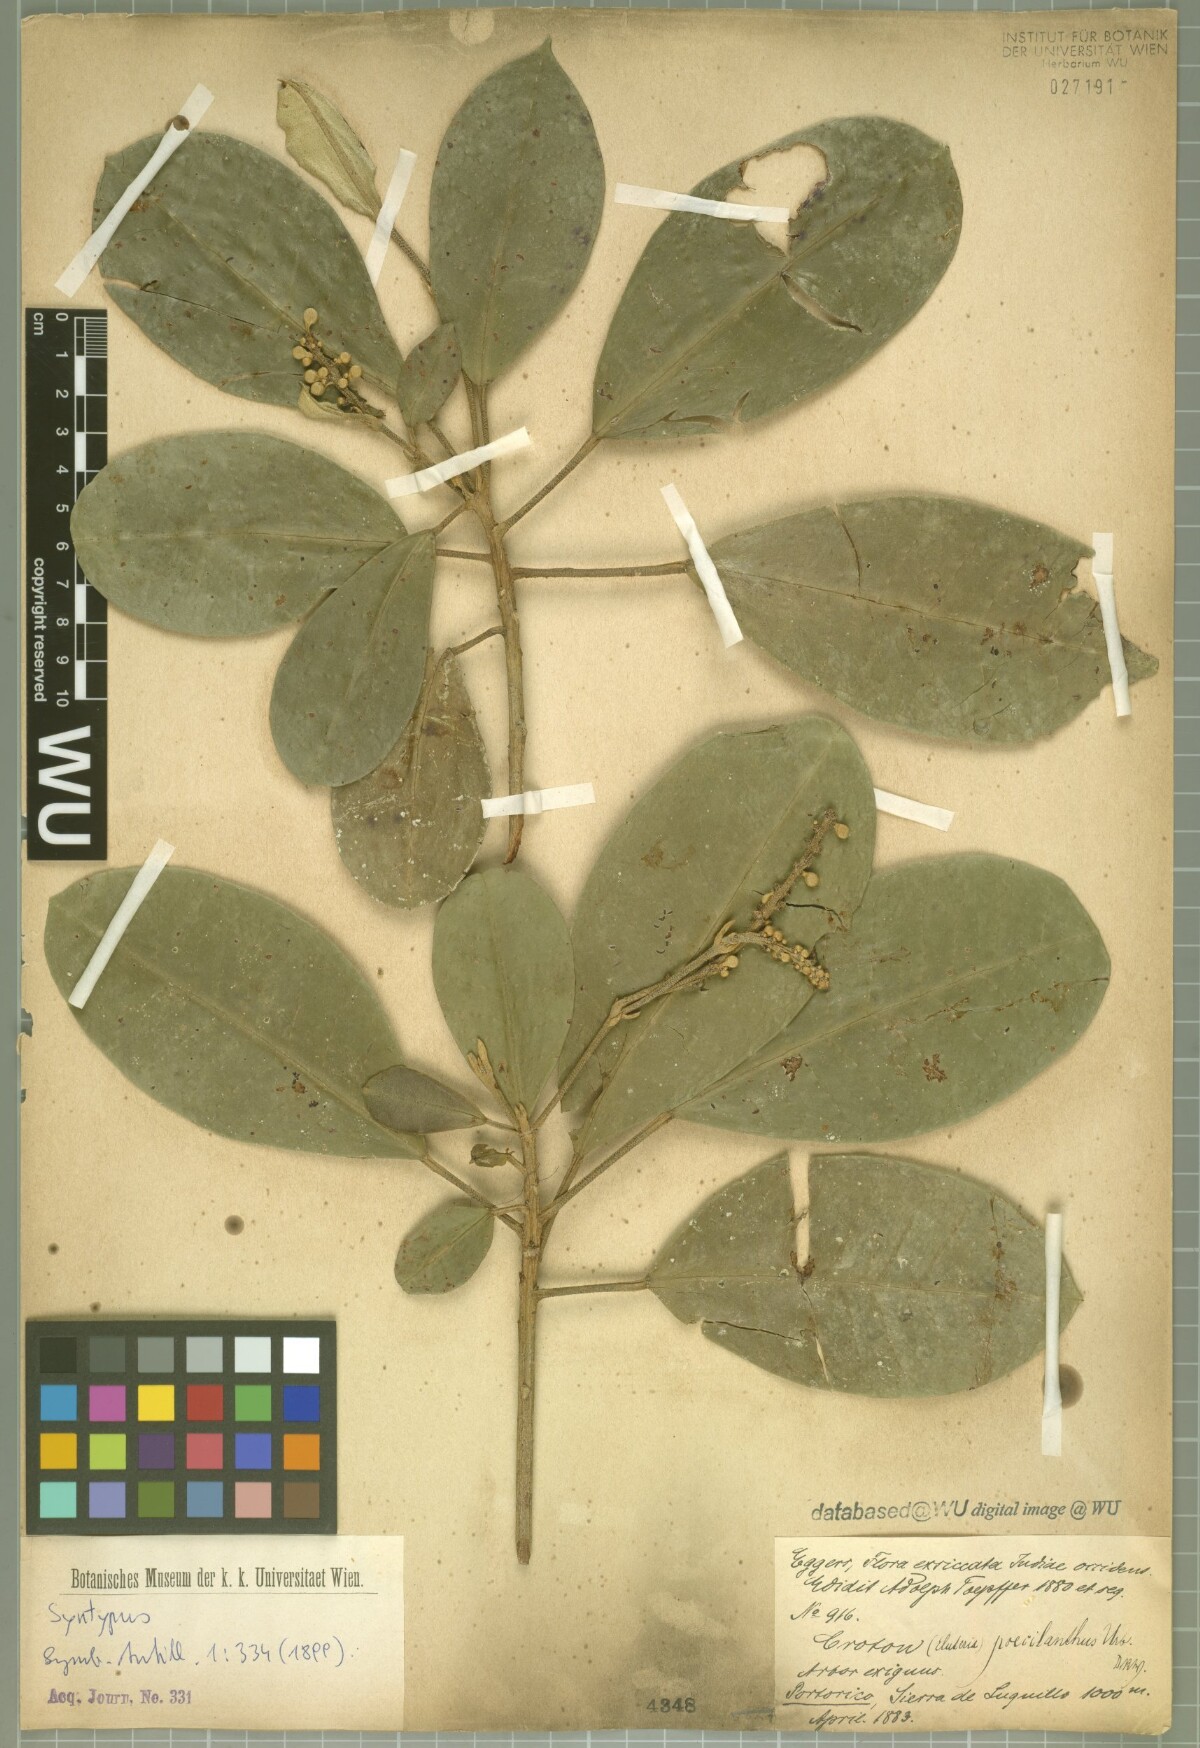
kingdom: Plantae
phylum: Tracheophyta
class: Magnoliopsida
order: Malpighiales
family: Euphorbiaceae
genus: Croton
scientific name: Croton poecilanthus
